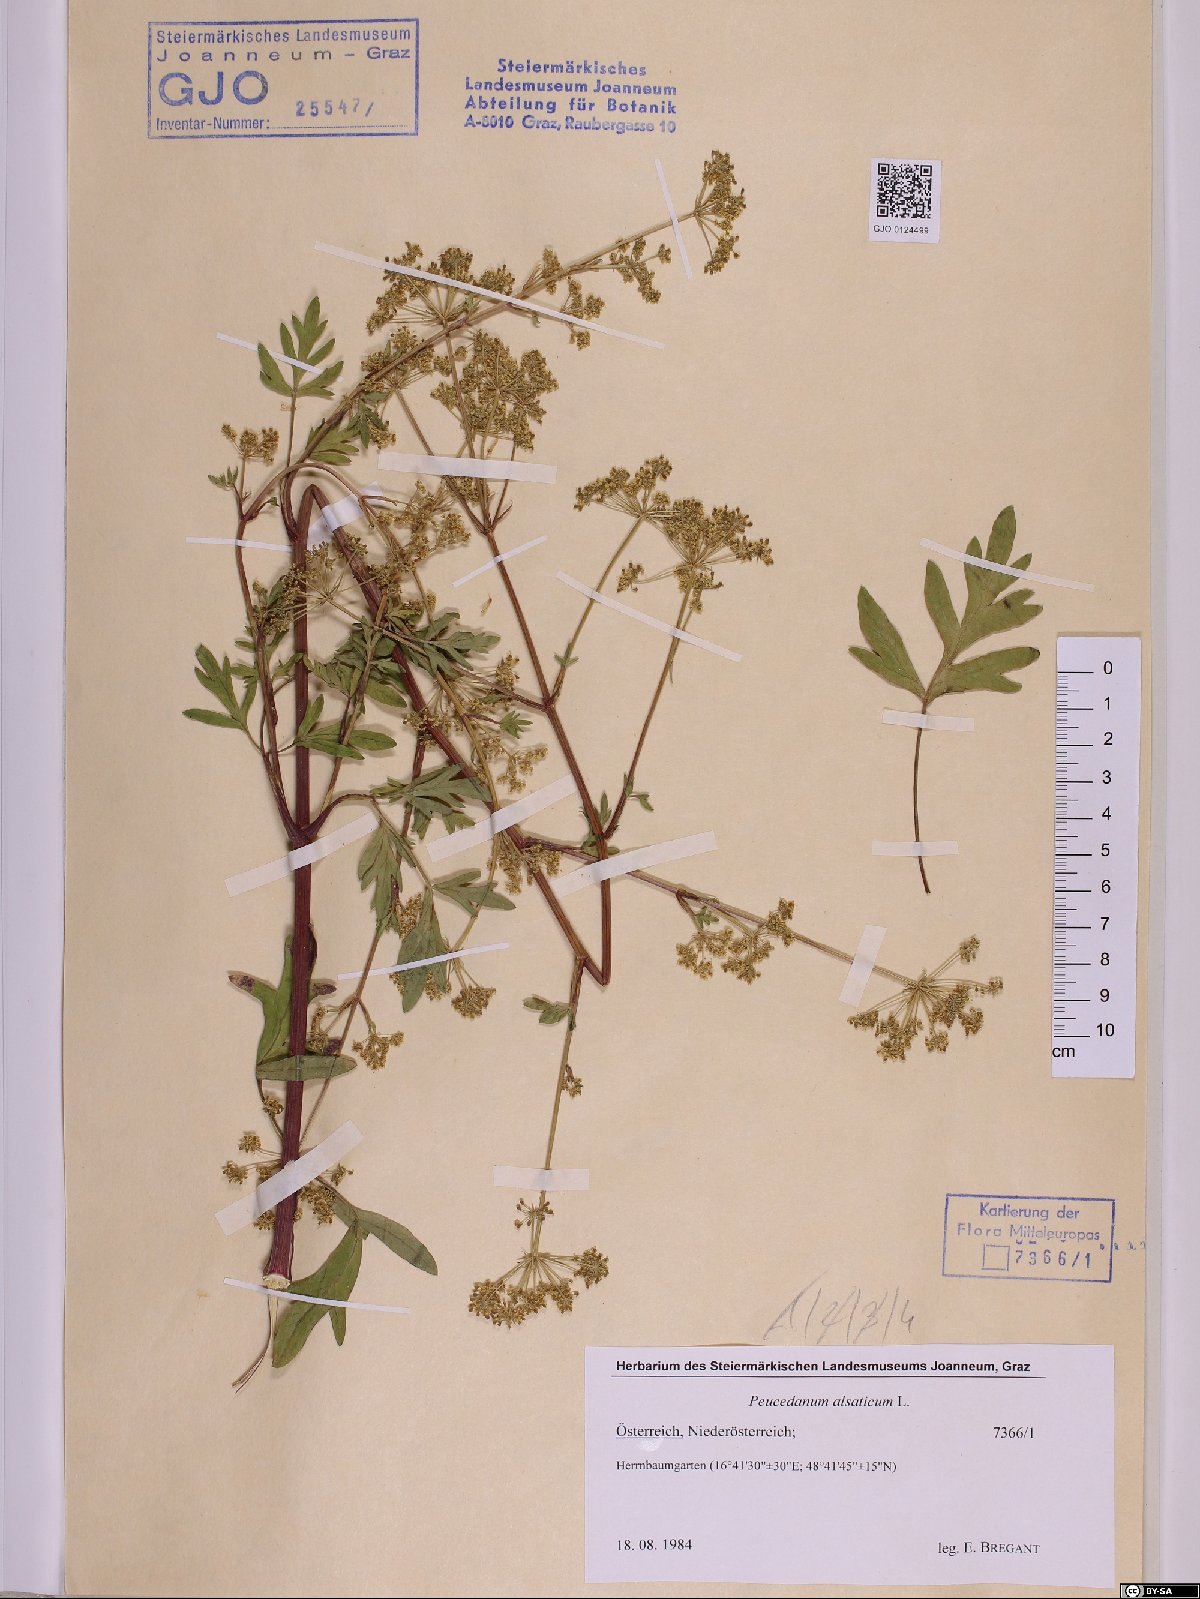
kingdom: Plantae
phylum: Tracheophyta
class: Magnoliopsida
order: Apiales
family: Apiaceae
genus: Xanthoselinum
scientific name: Xanthoselinum alsaticum
